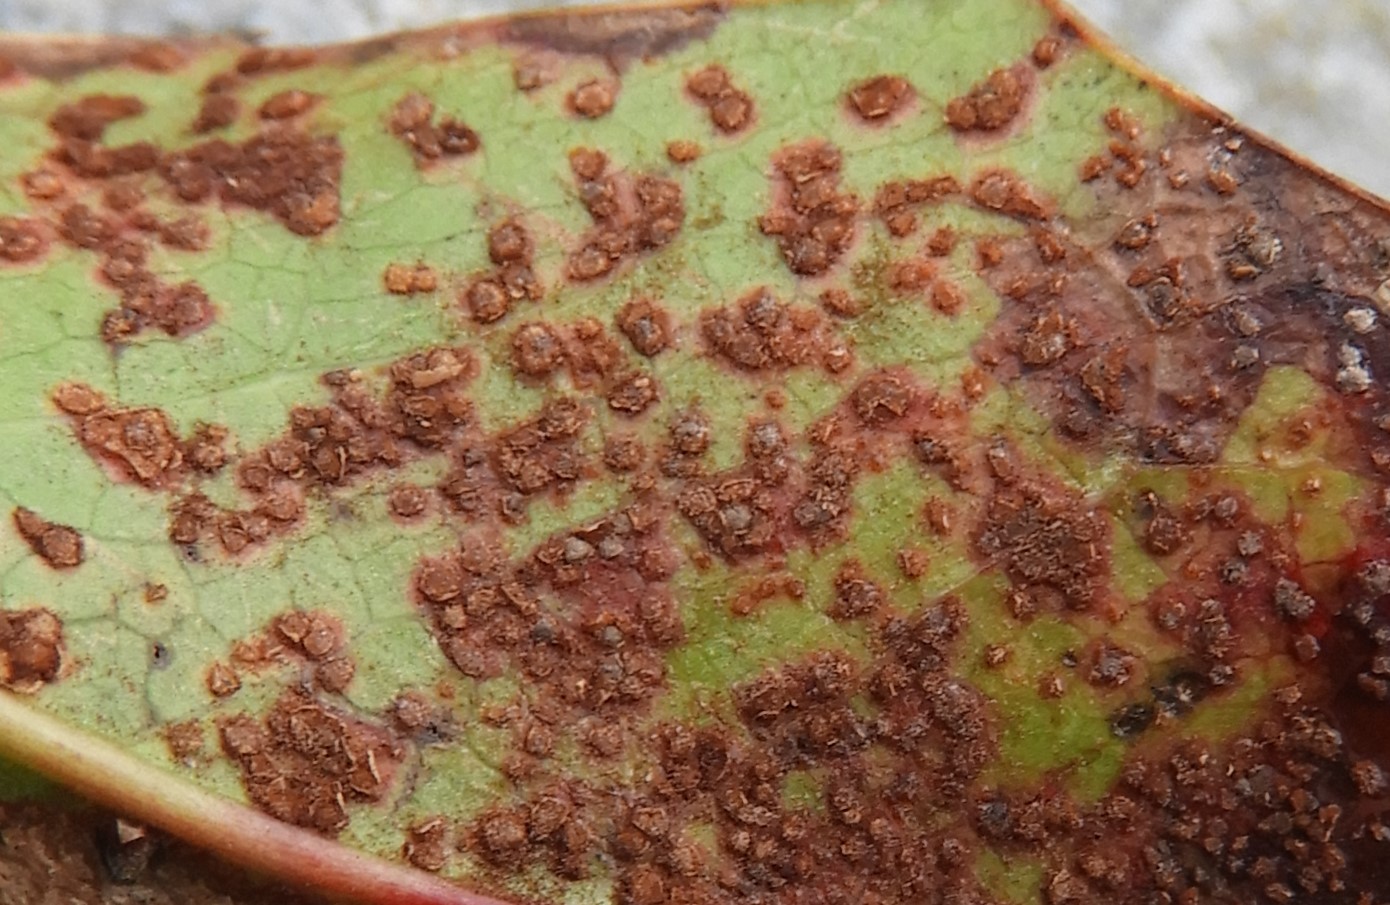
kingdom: Fungi
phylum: Basidiomycota
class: Pucciniomycetes
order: Pucciniales
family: Pucciniaceae
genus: Cumminsiella
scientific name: Cumminsiella mirabilissima
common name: mahonierust
